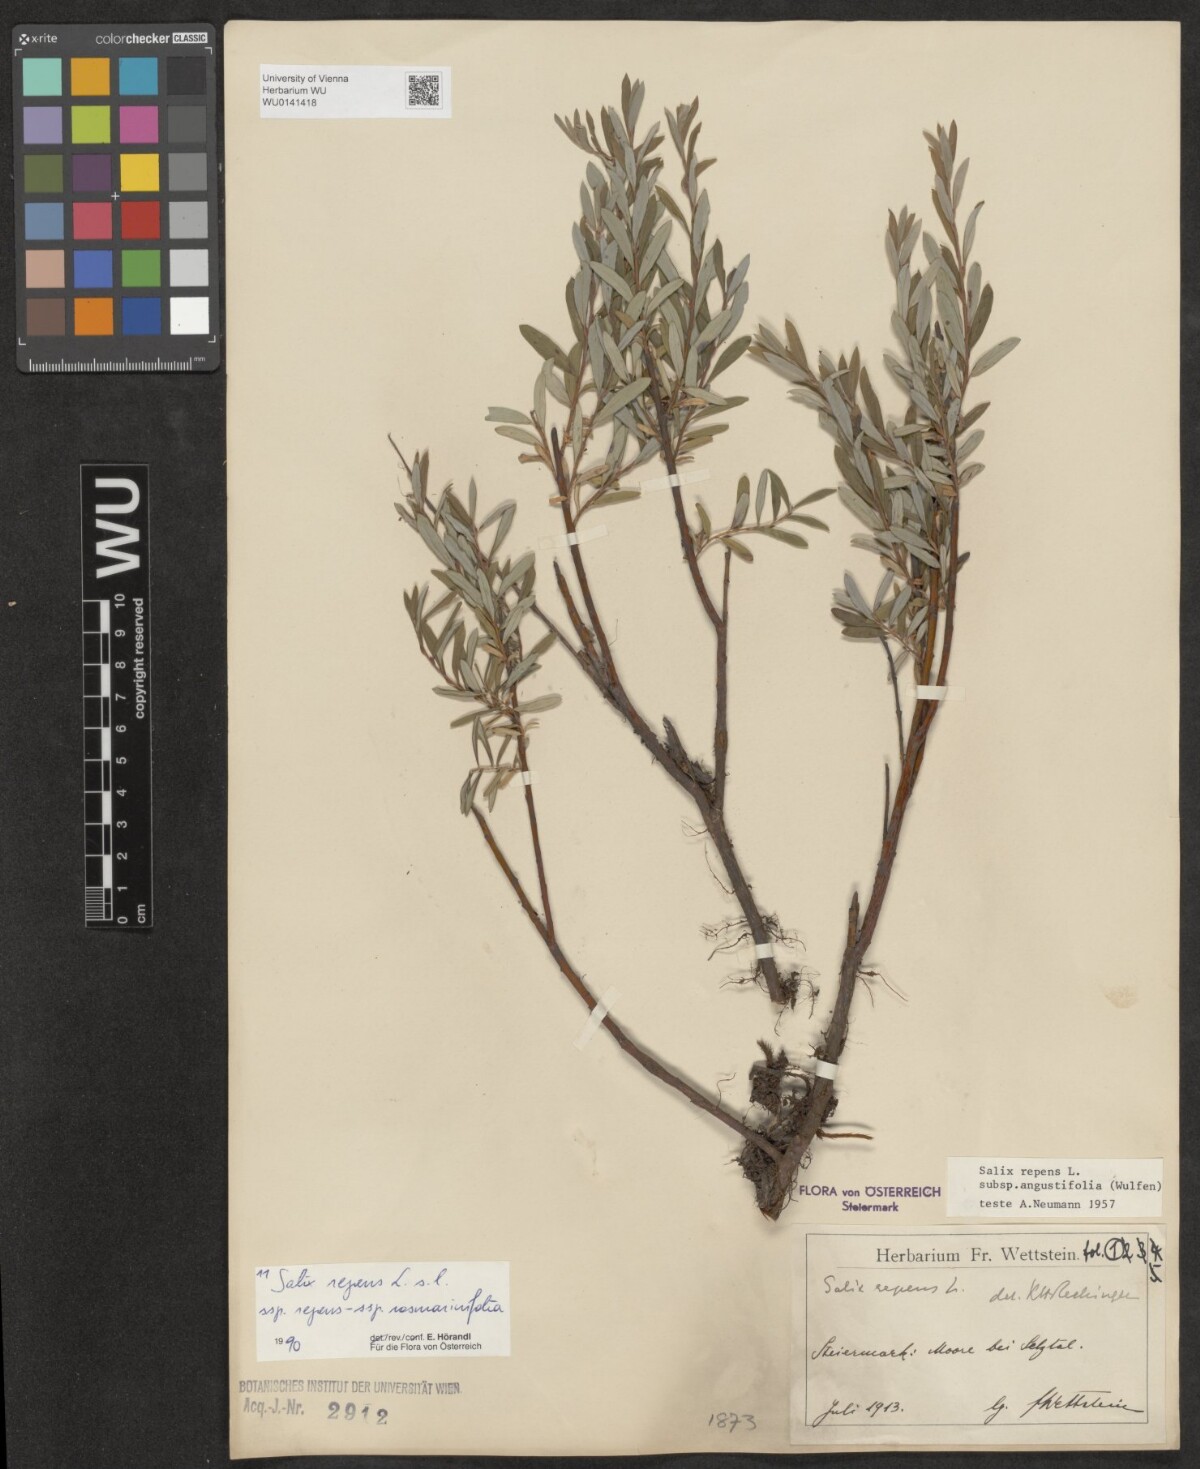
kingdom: Plantae
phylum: Tracheophyta
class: Magnoliopsida
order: Malpighiales
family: Salicaceae
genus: Salix
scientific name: Salix repens
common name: Creeping willow
